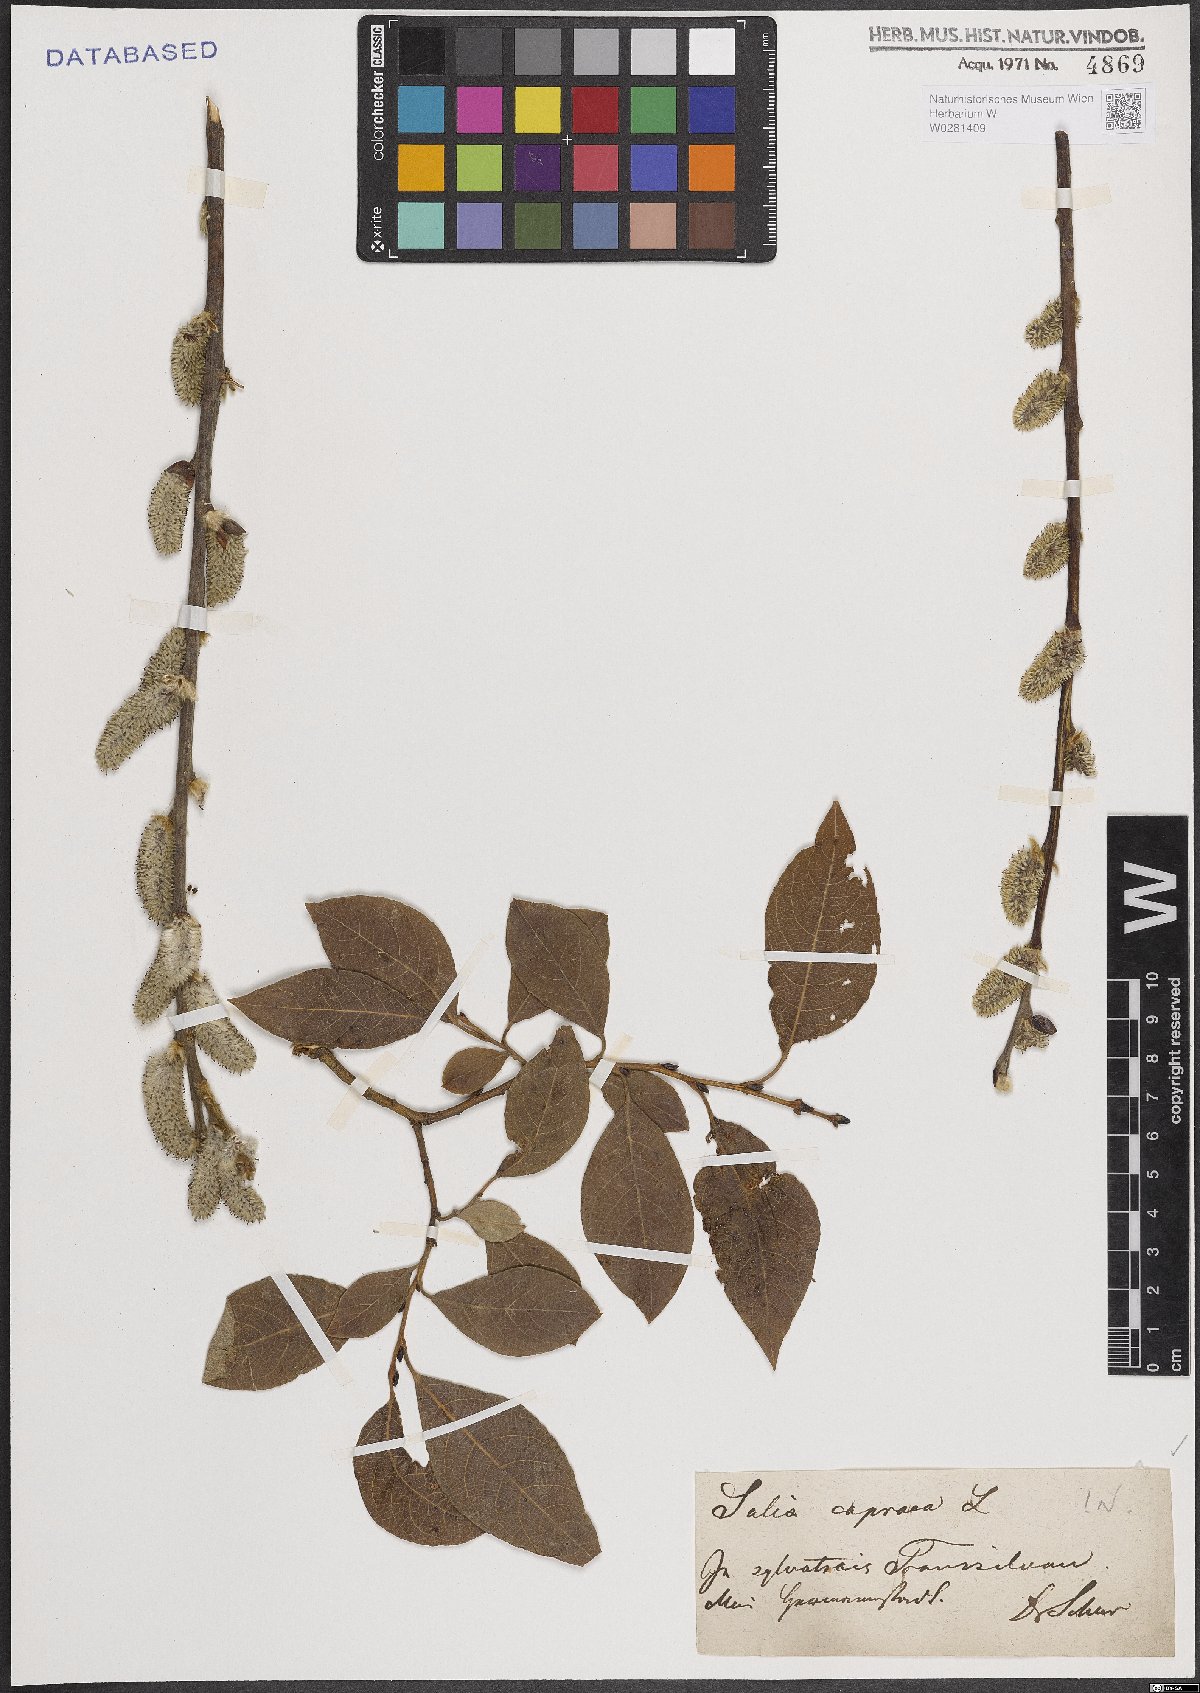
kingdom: Plantae
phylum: Tracheophyta
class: Magnoliopsida
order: Malpighiales
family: Salicaceae
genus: Salix
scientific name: Salix caprea
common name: Goat willow
